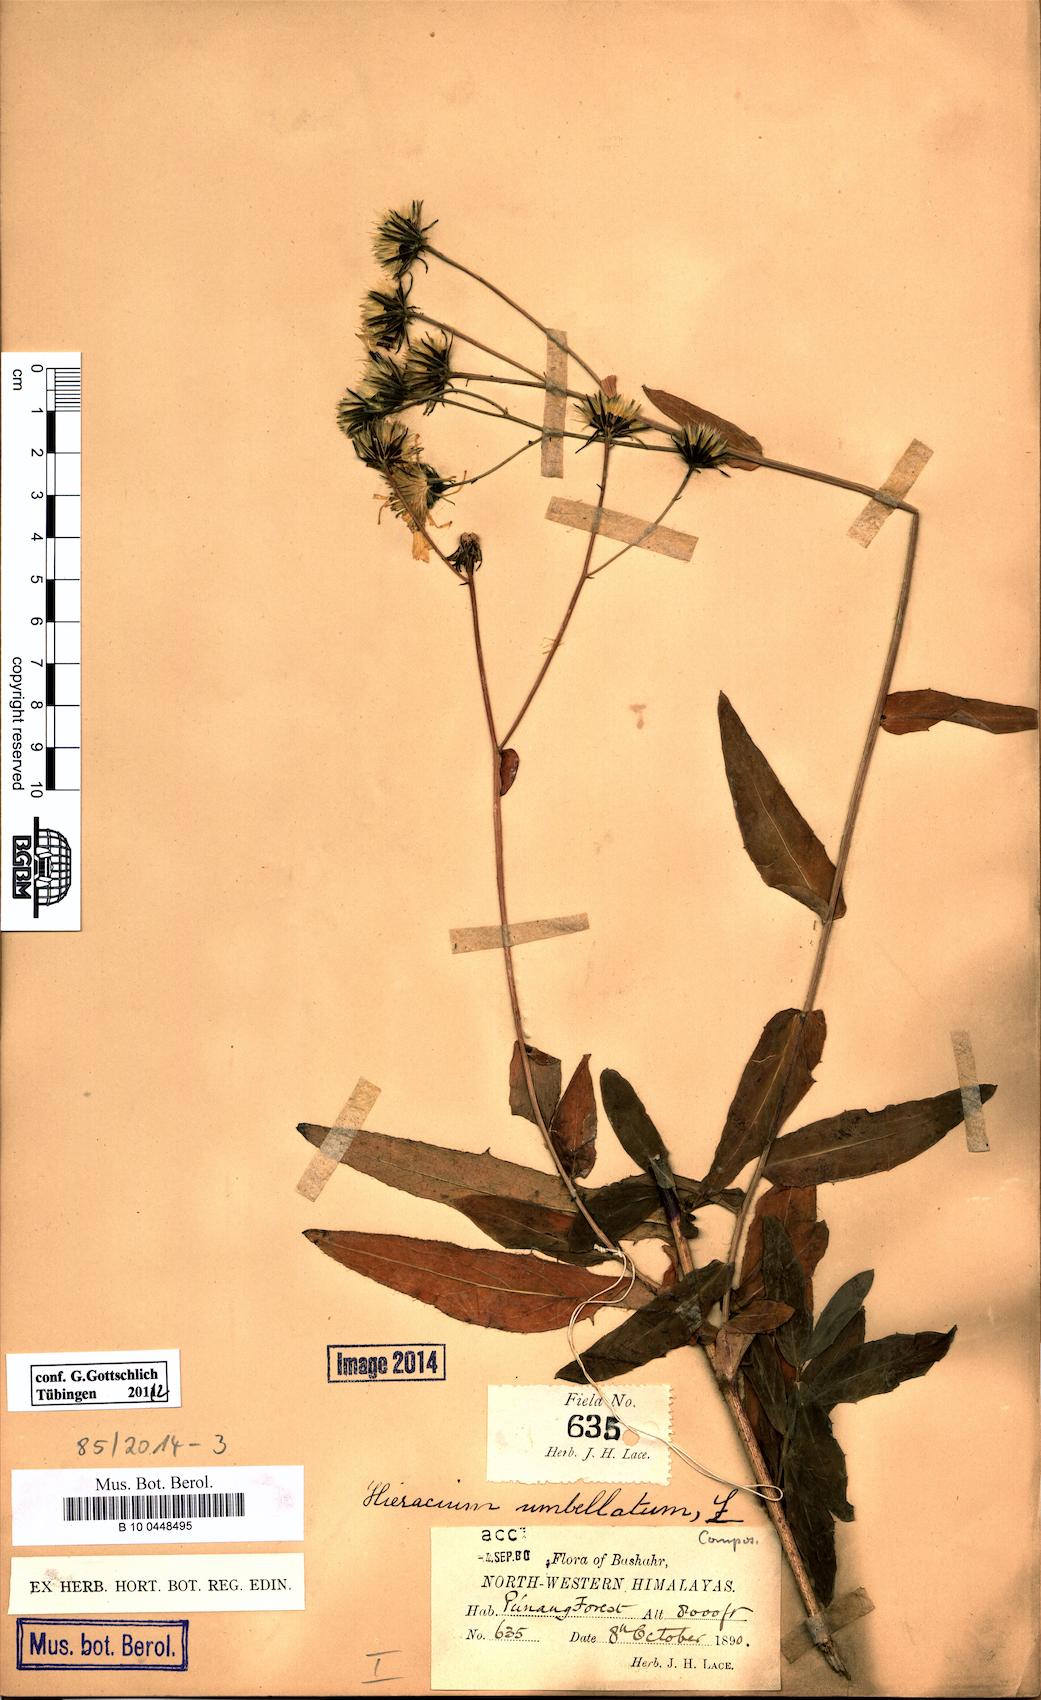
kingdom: Plantae
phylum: Tracheophyta
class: Magnoliopsida
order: Asterales
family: Asteraceae
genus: Hieracium
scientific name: Hieracium umbellatum
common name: Northern hawkweed
